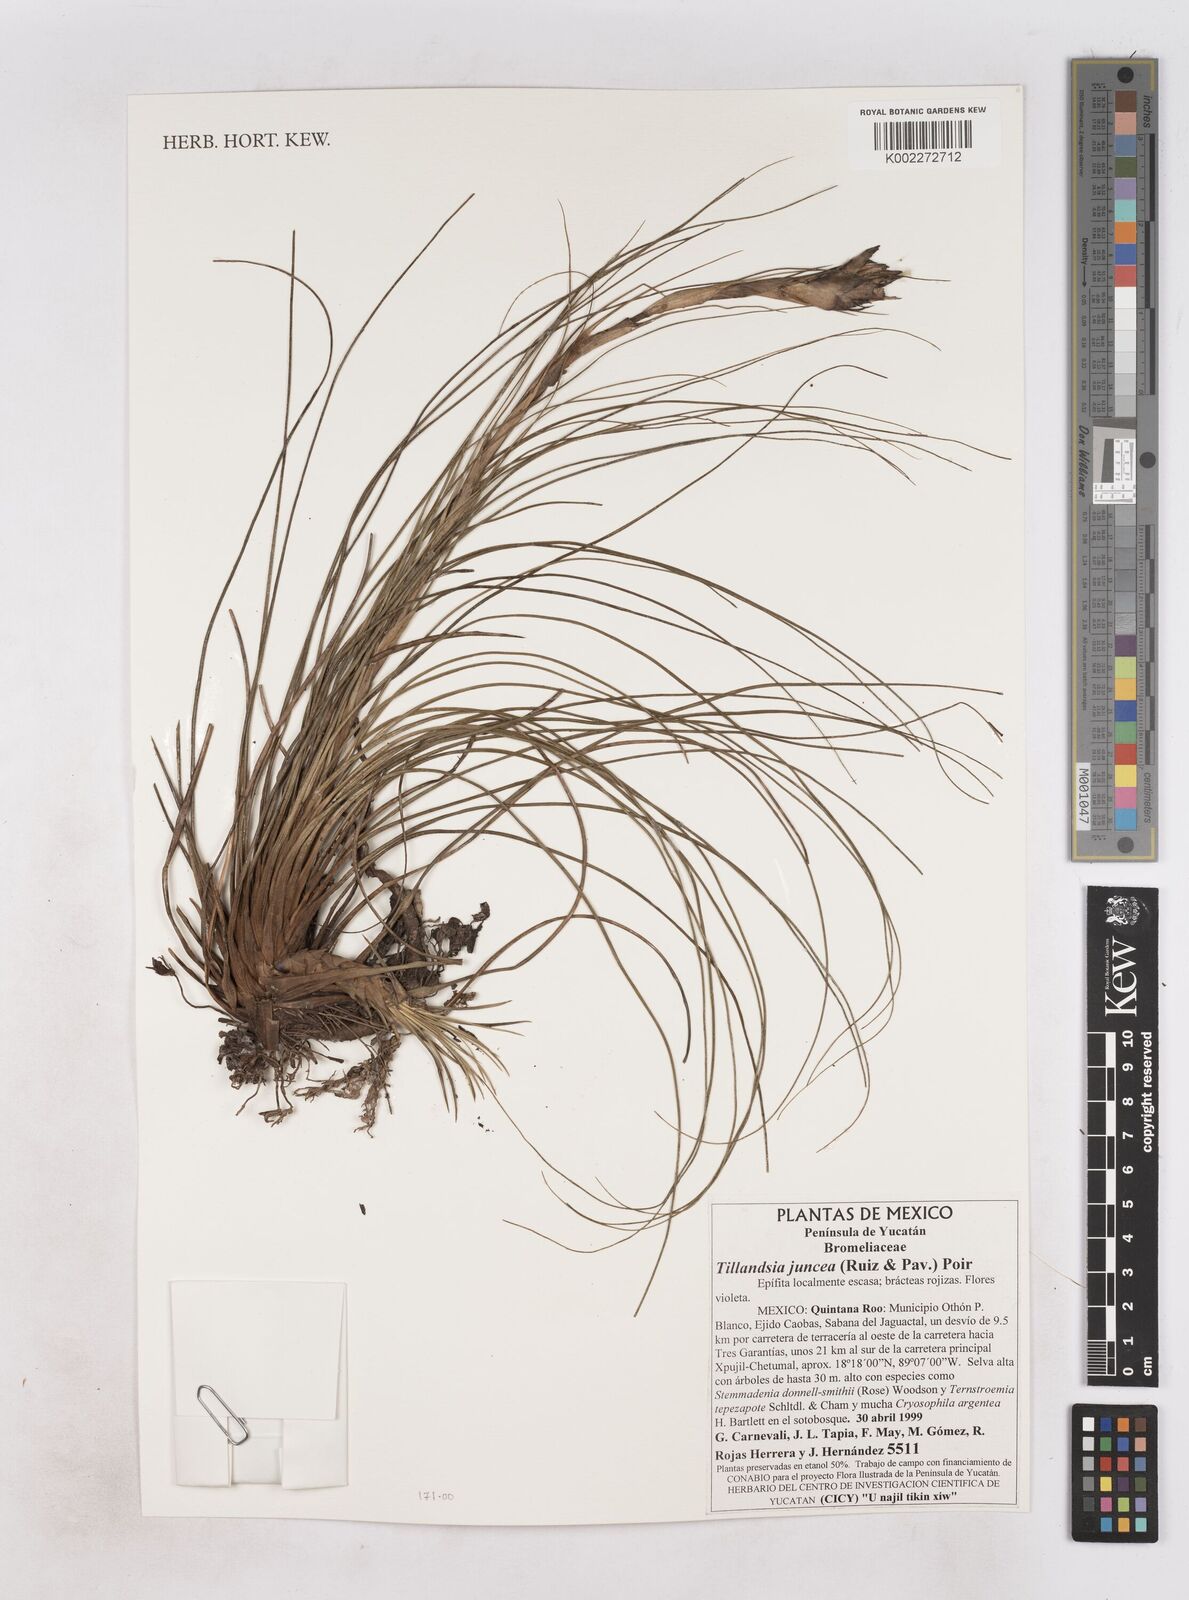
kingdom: Plantae
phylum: Tracheophyta
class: Liliopsida
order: Poales
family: Bromeliaceae
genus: Tillandsia
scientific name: Tillandsia juncea
